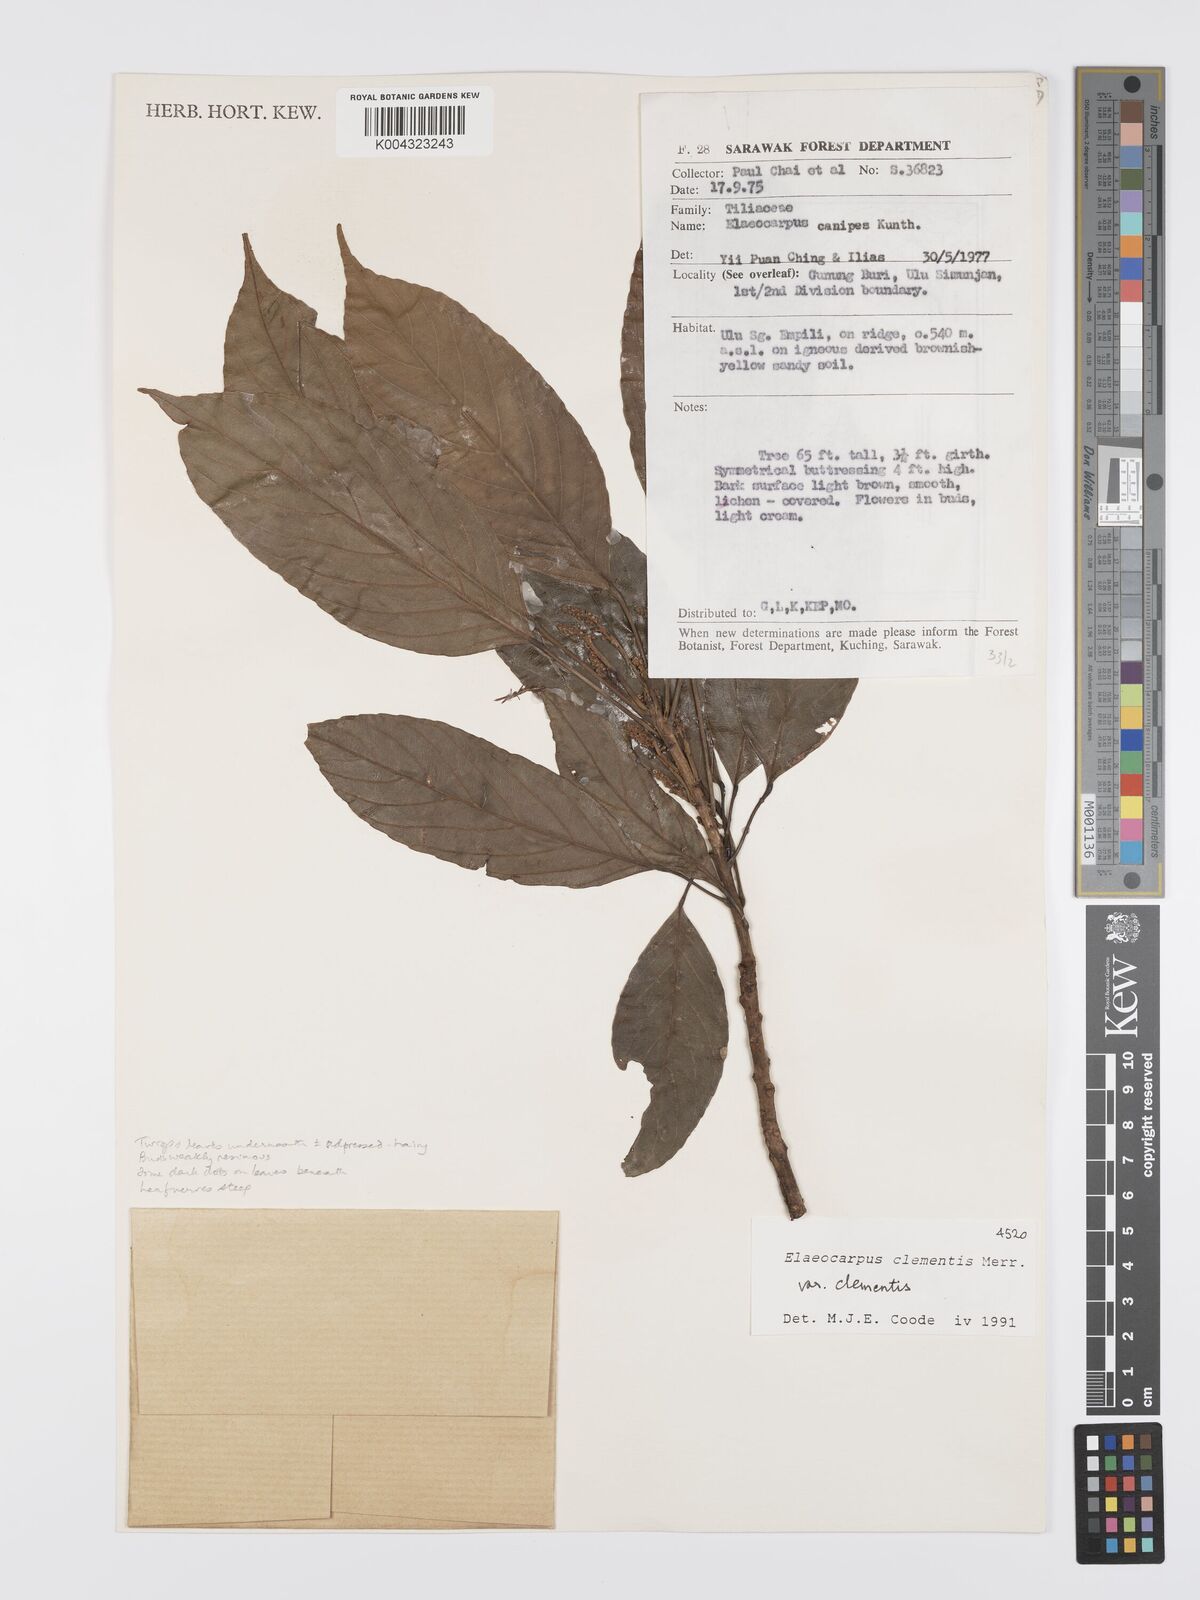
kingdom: Plantae
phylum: Tracheophyta
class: Magnoliopsida
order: Oxalidales
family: Elaeocarpaceae
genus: Elaeocarpus
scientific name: Elaeocarpus clementis
